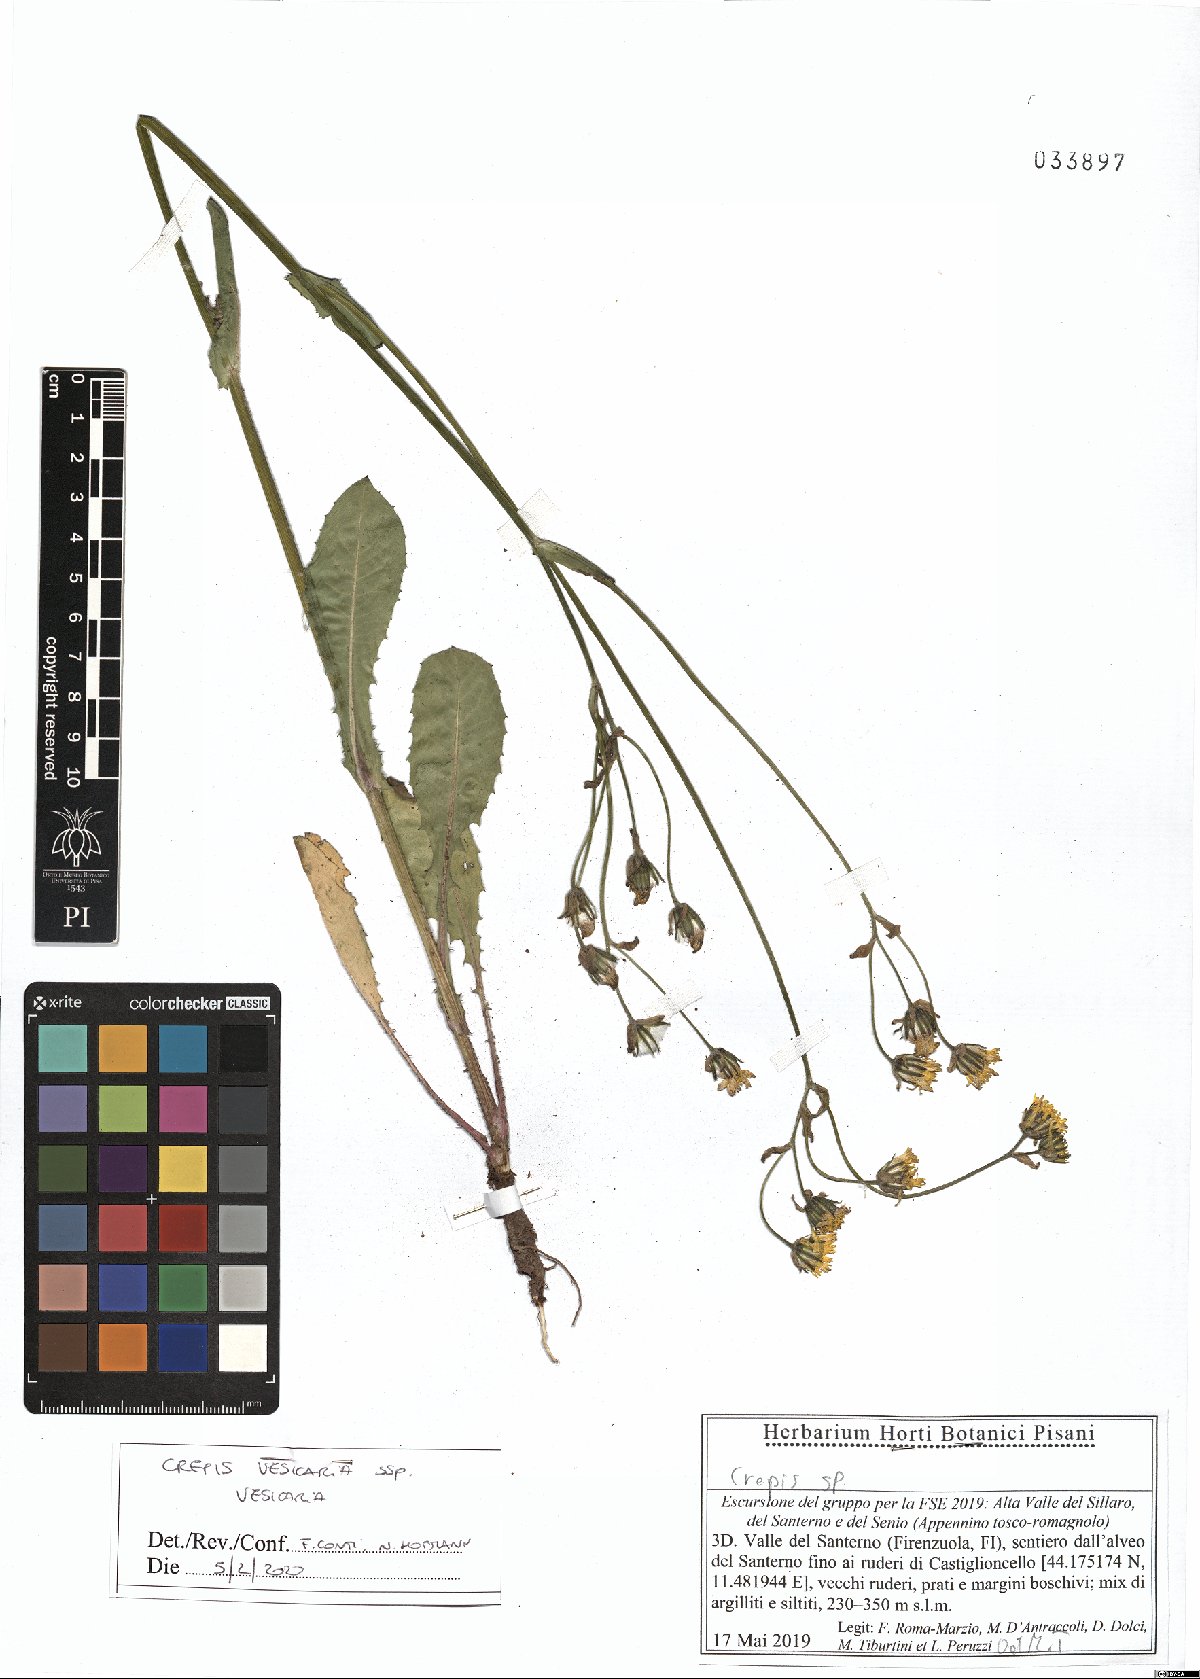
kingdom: Plantae
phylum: Tracheophyta
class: Magnoliopsida
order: Asterales
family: Asteraceae
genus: Crepis
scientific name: Crepis vesicaria
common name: Beaked hawksbeard
